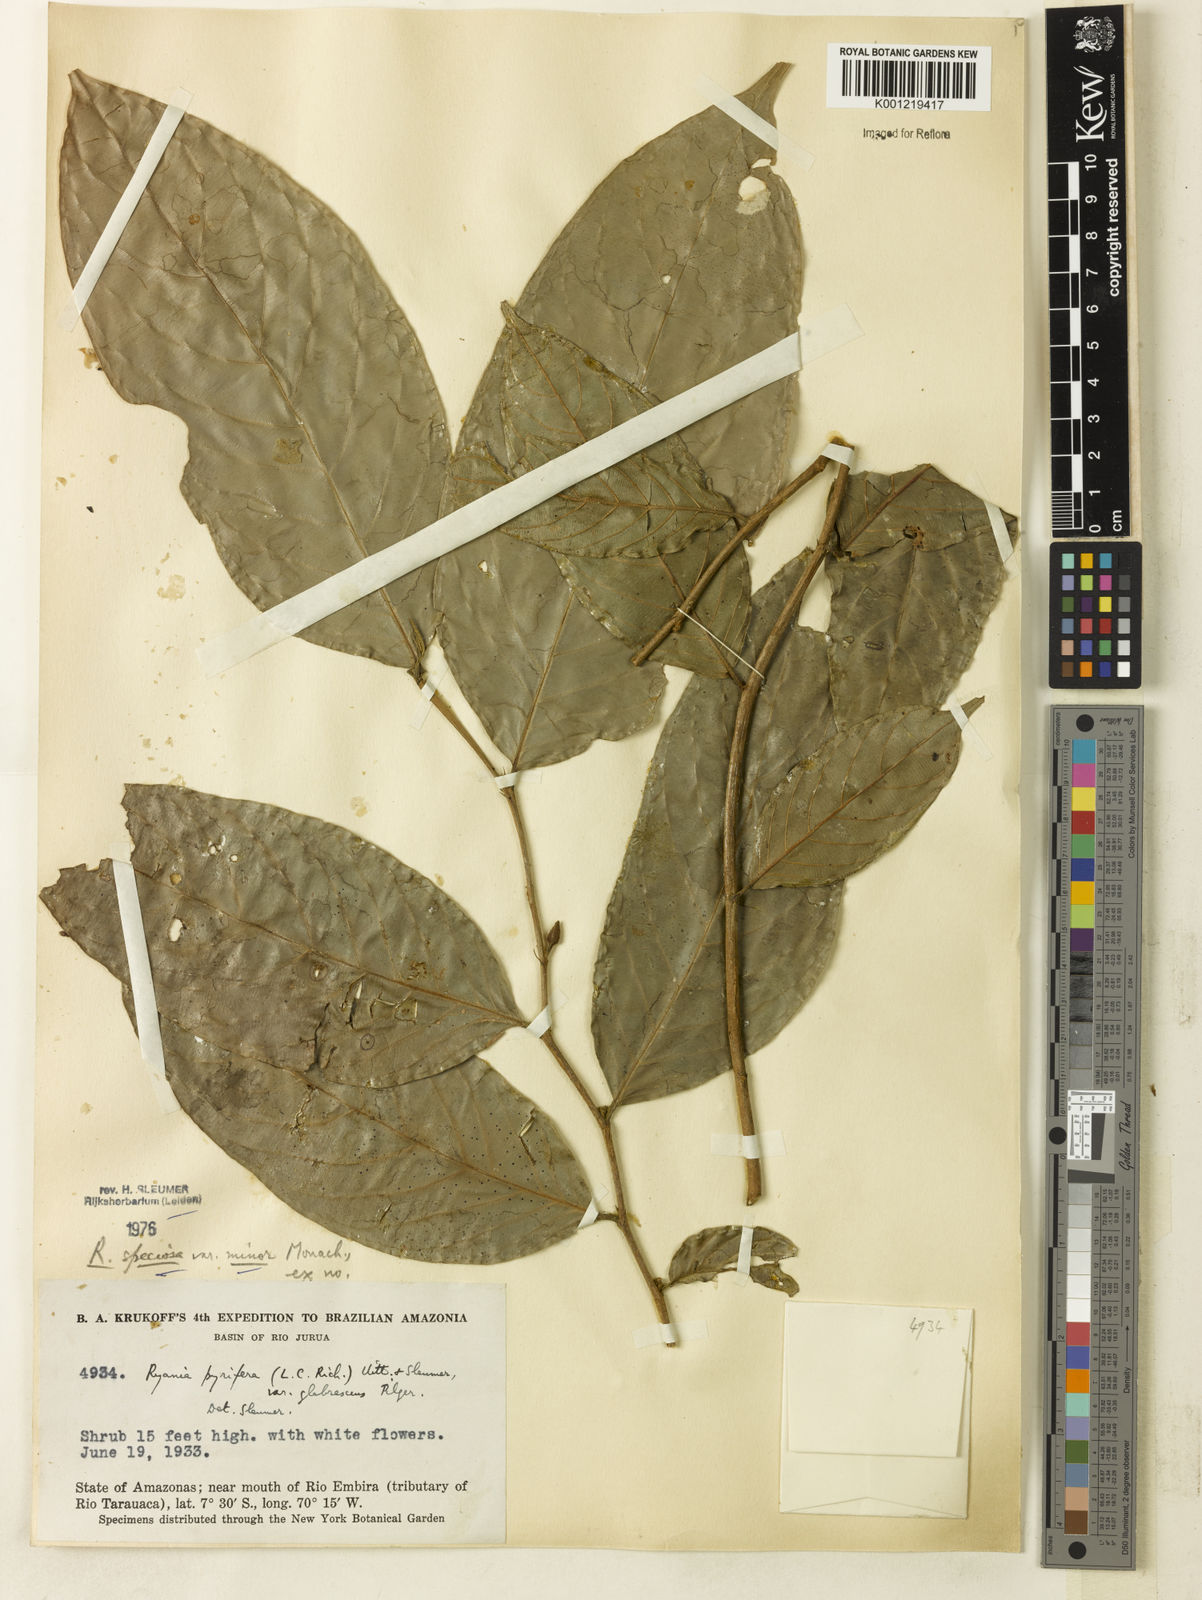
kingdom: Plantae
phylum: Tracheophyta
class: Magnoliopsida
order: Malpighiales
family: Salicaceae
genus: Ryania
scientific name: Ryania speciosa
